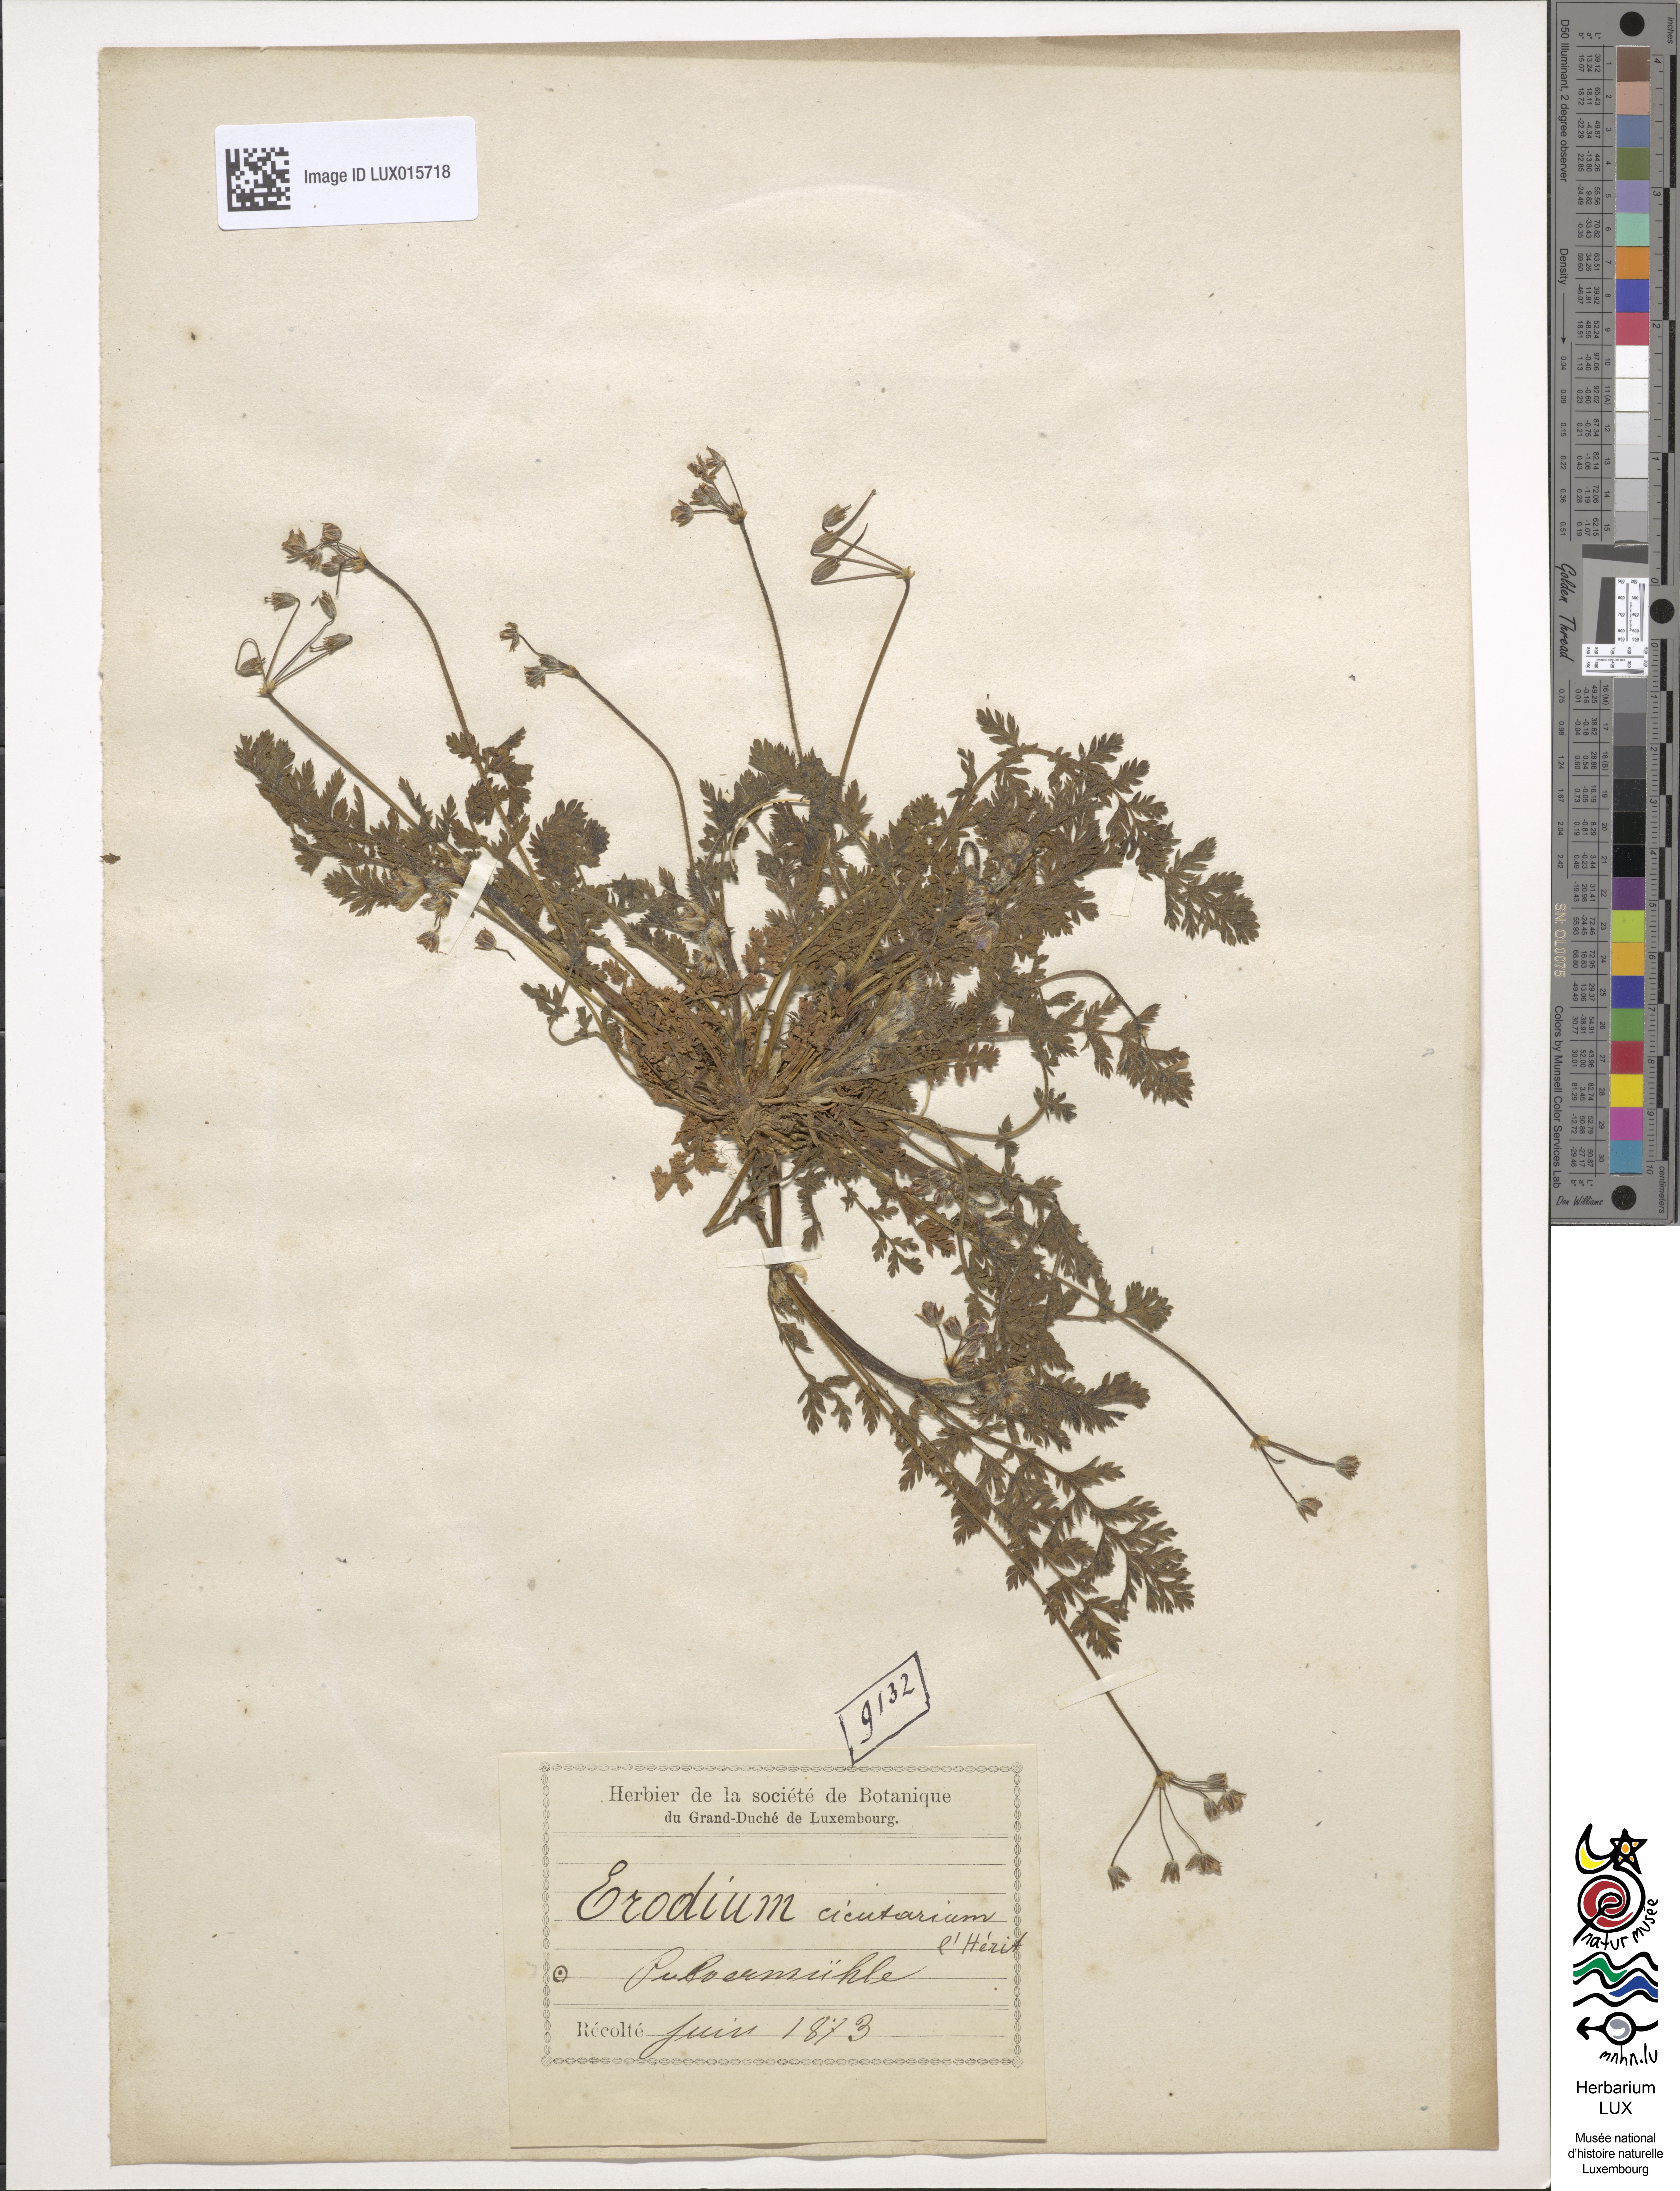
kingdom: Plantae
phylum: Tracheophyta
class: Magnoliopsida
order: Geraniales
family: Geraniaceae
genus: Erodium
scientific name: Erodium cicutarium
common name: Common stork's-bill
